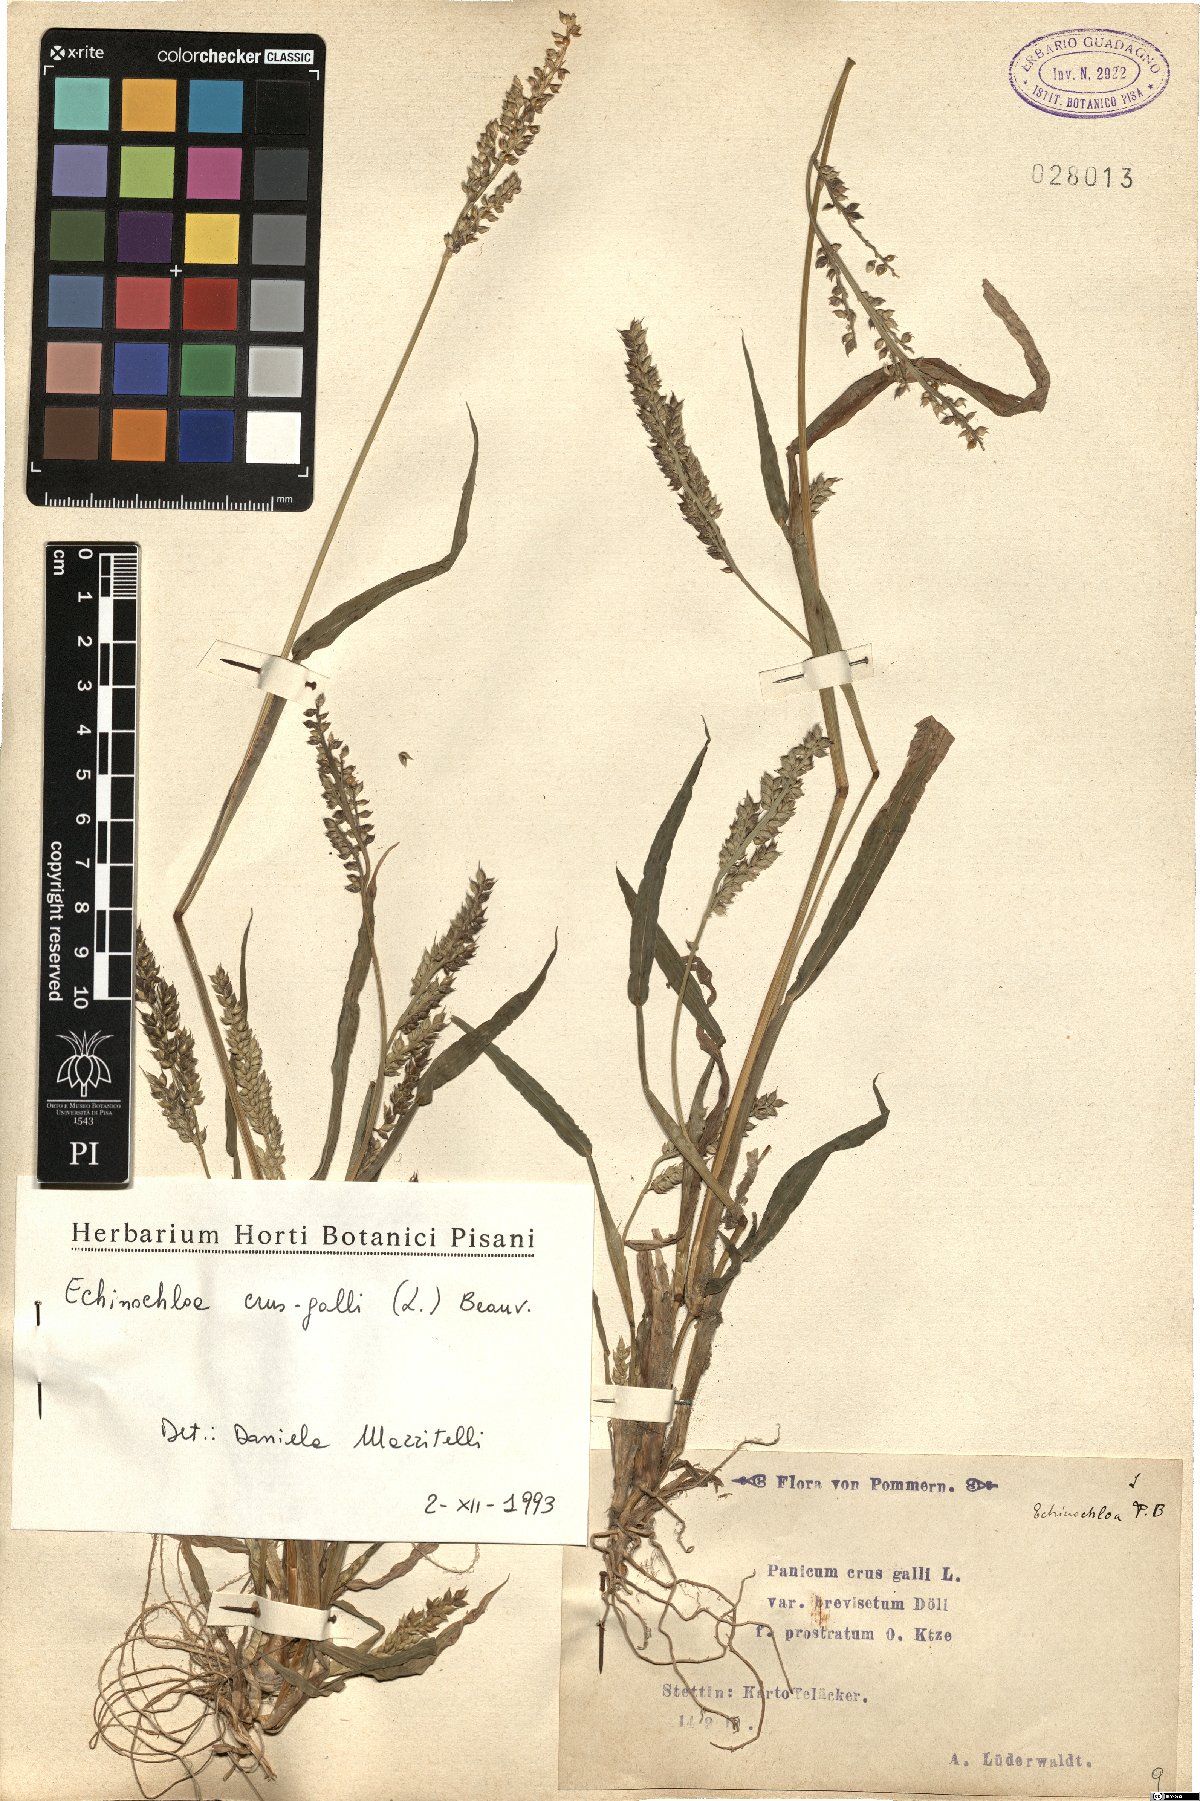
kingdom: Plantae
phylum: Tracheophyta
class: Liliopsida
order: Poales
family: Poaceae
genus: Echinochloa
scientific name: Echinochloa crus-galli
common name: Cockspur
